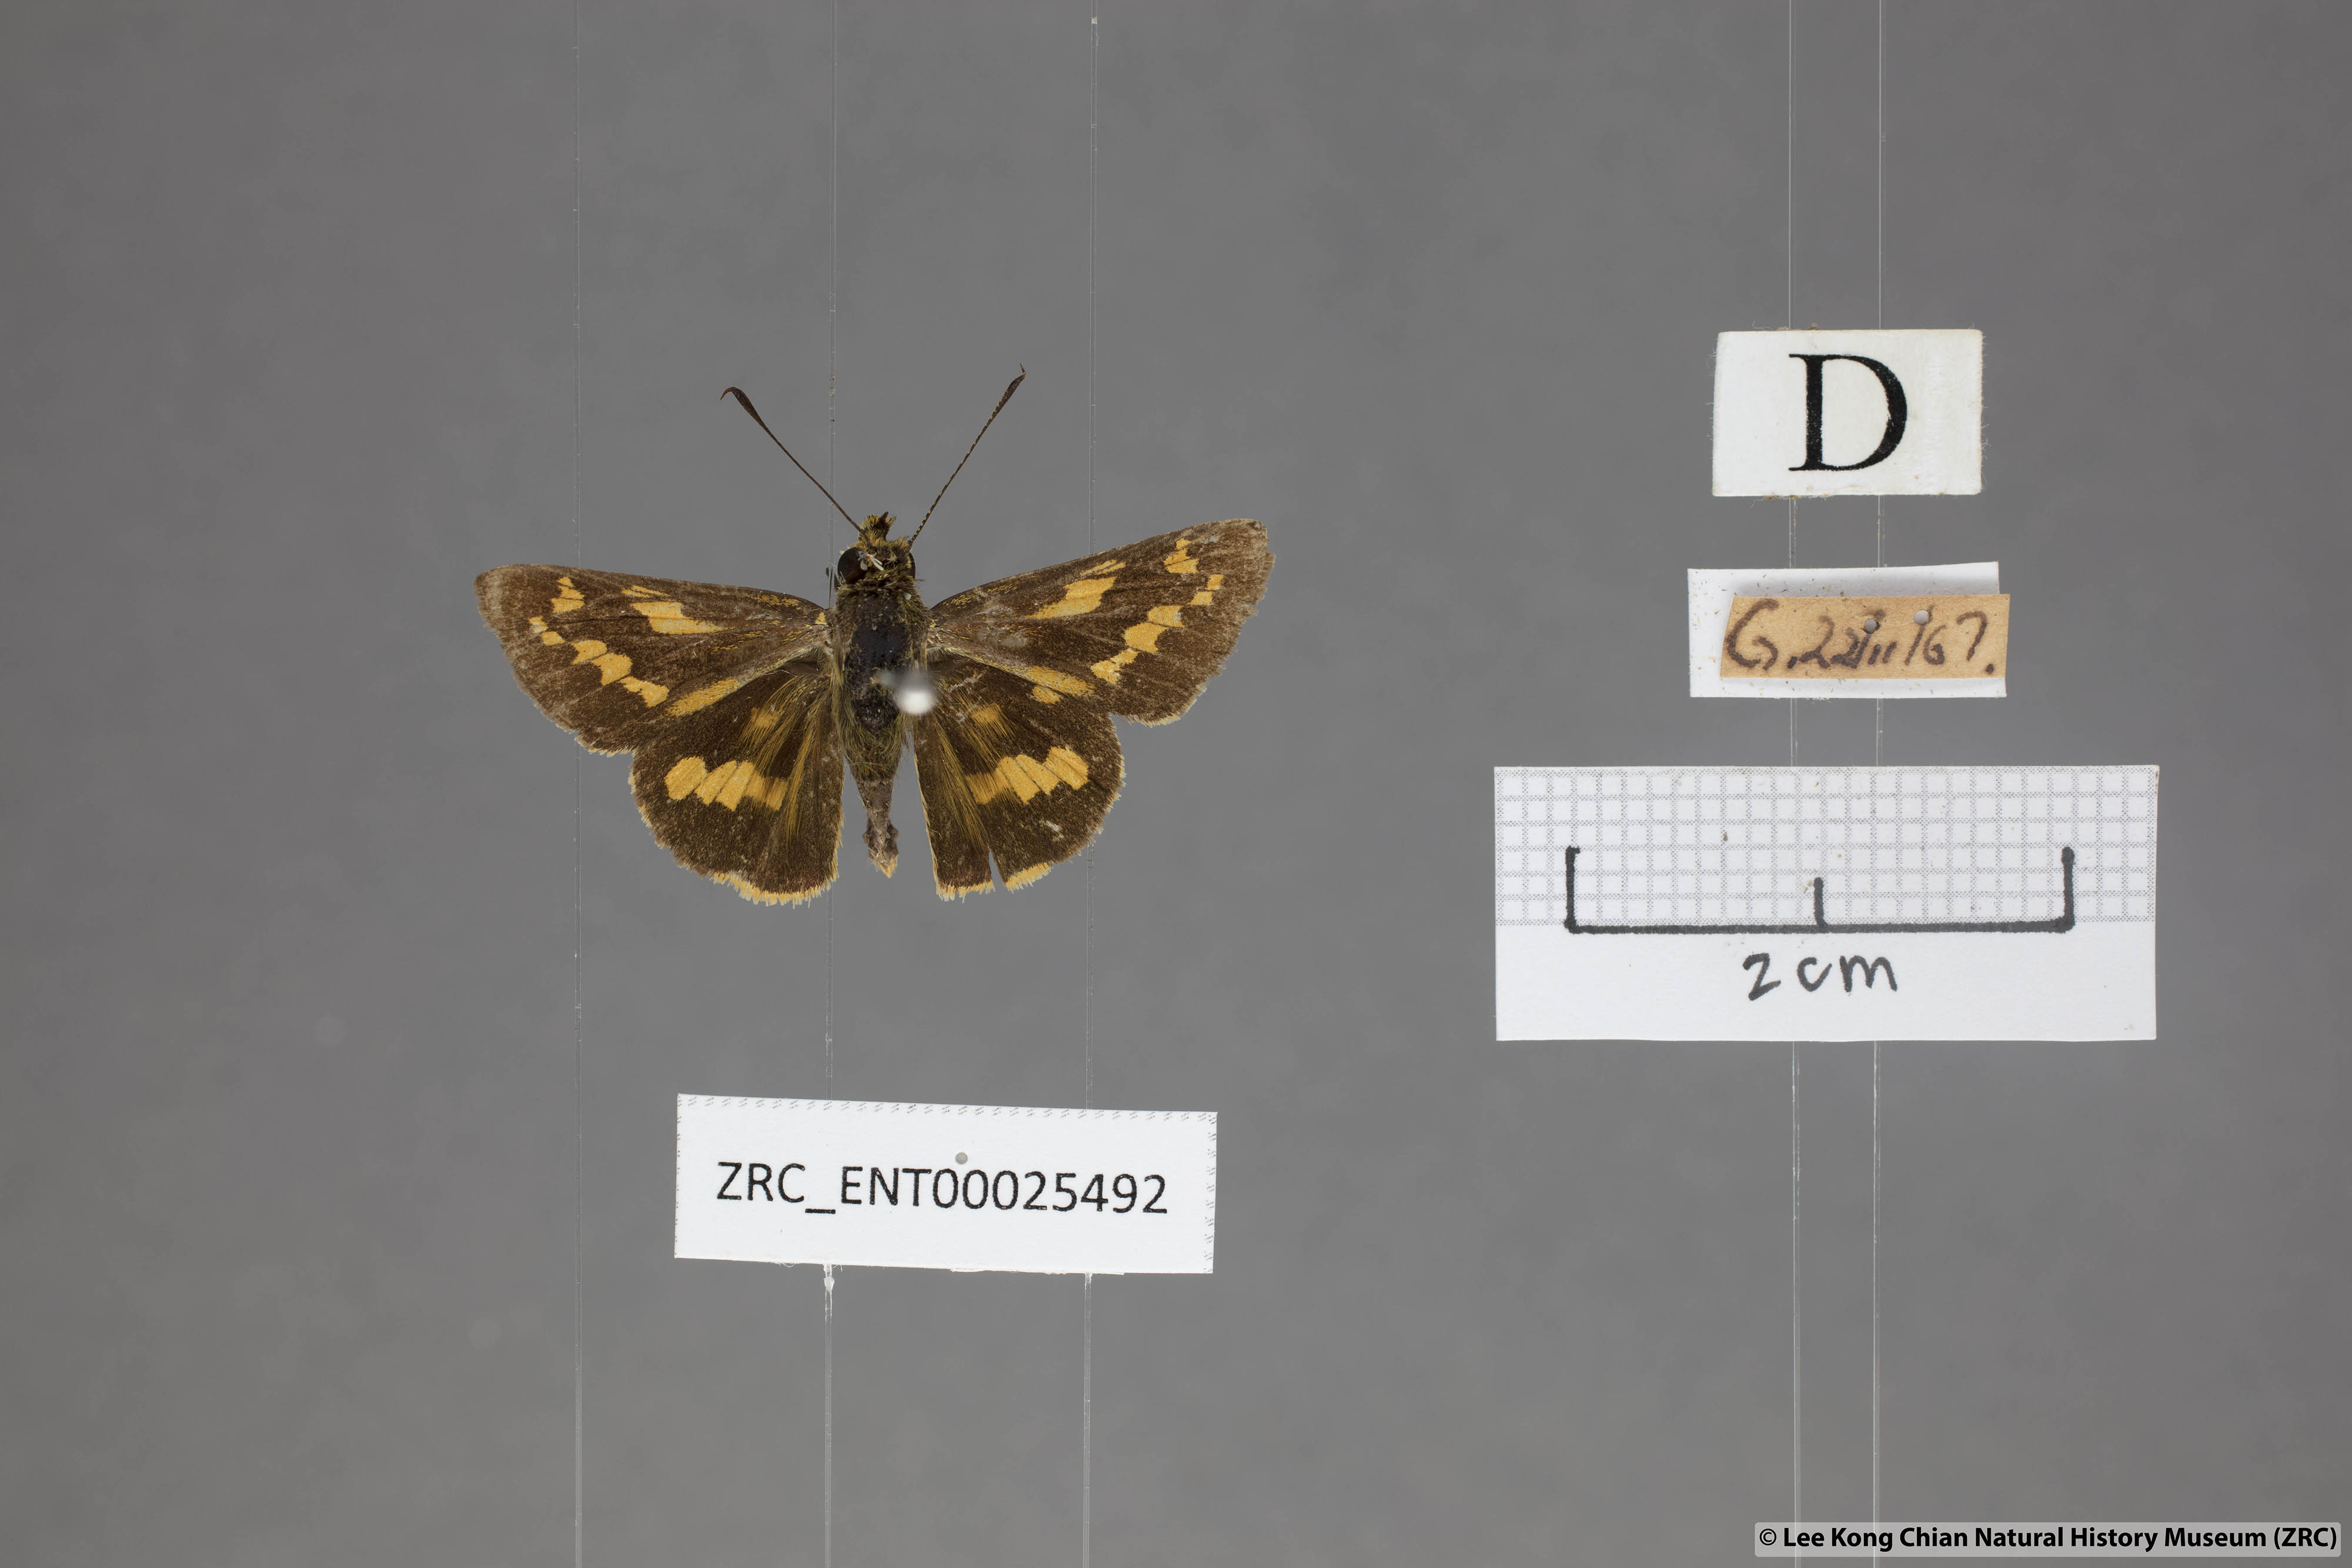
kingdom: Animalia
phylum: Arthropoda
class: Insecta
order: Lepidoptera
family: Hesperiidae
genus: Potanthus
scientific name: Potanthus trachala
